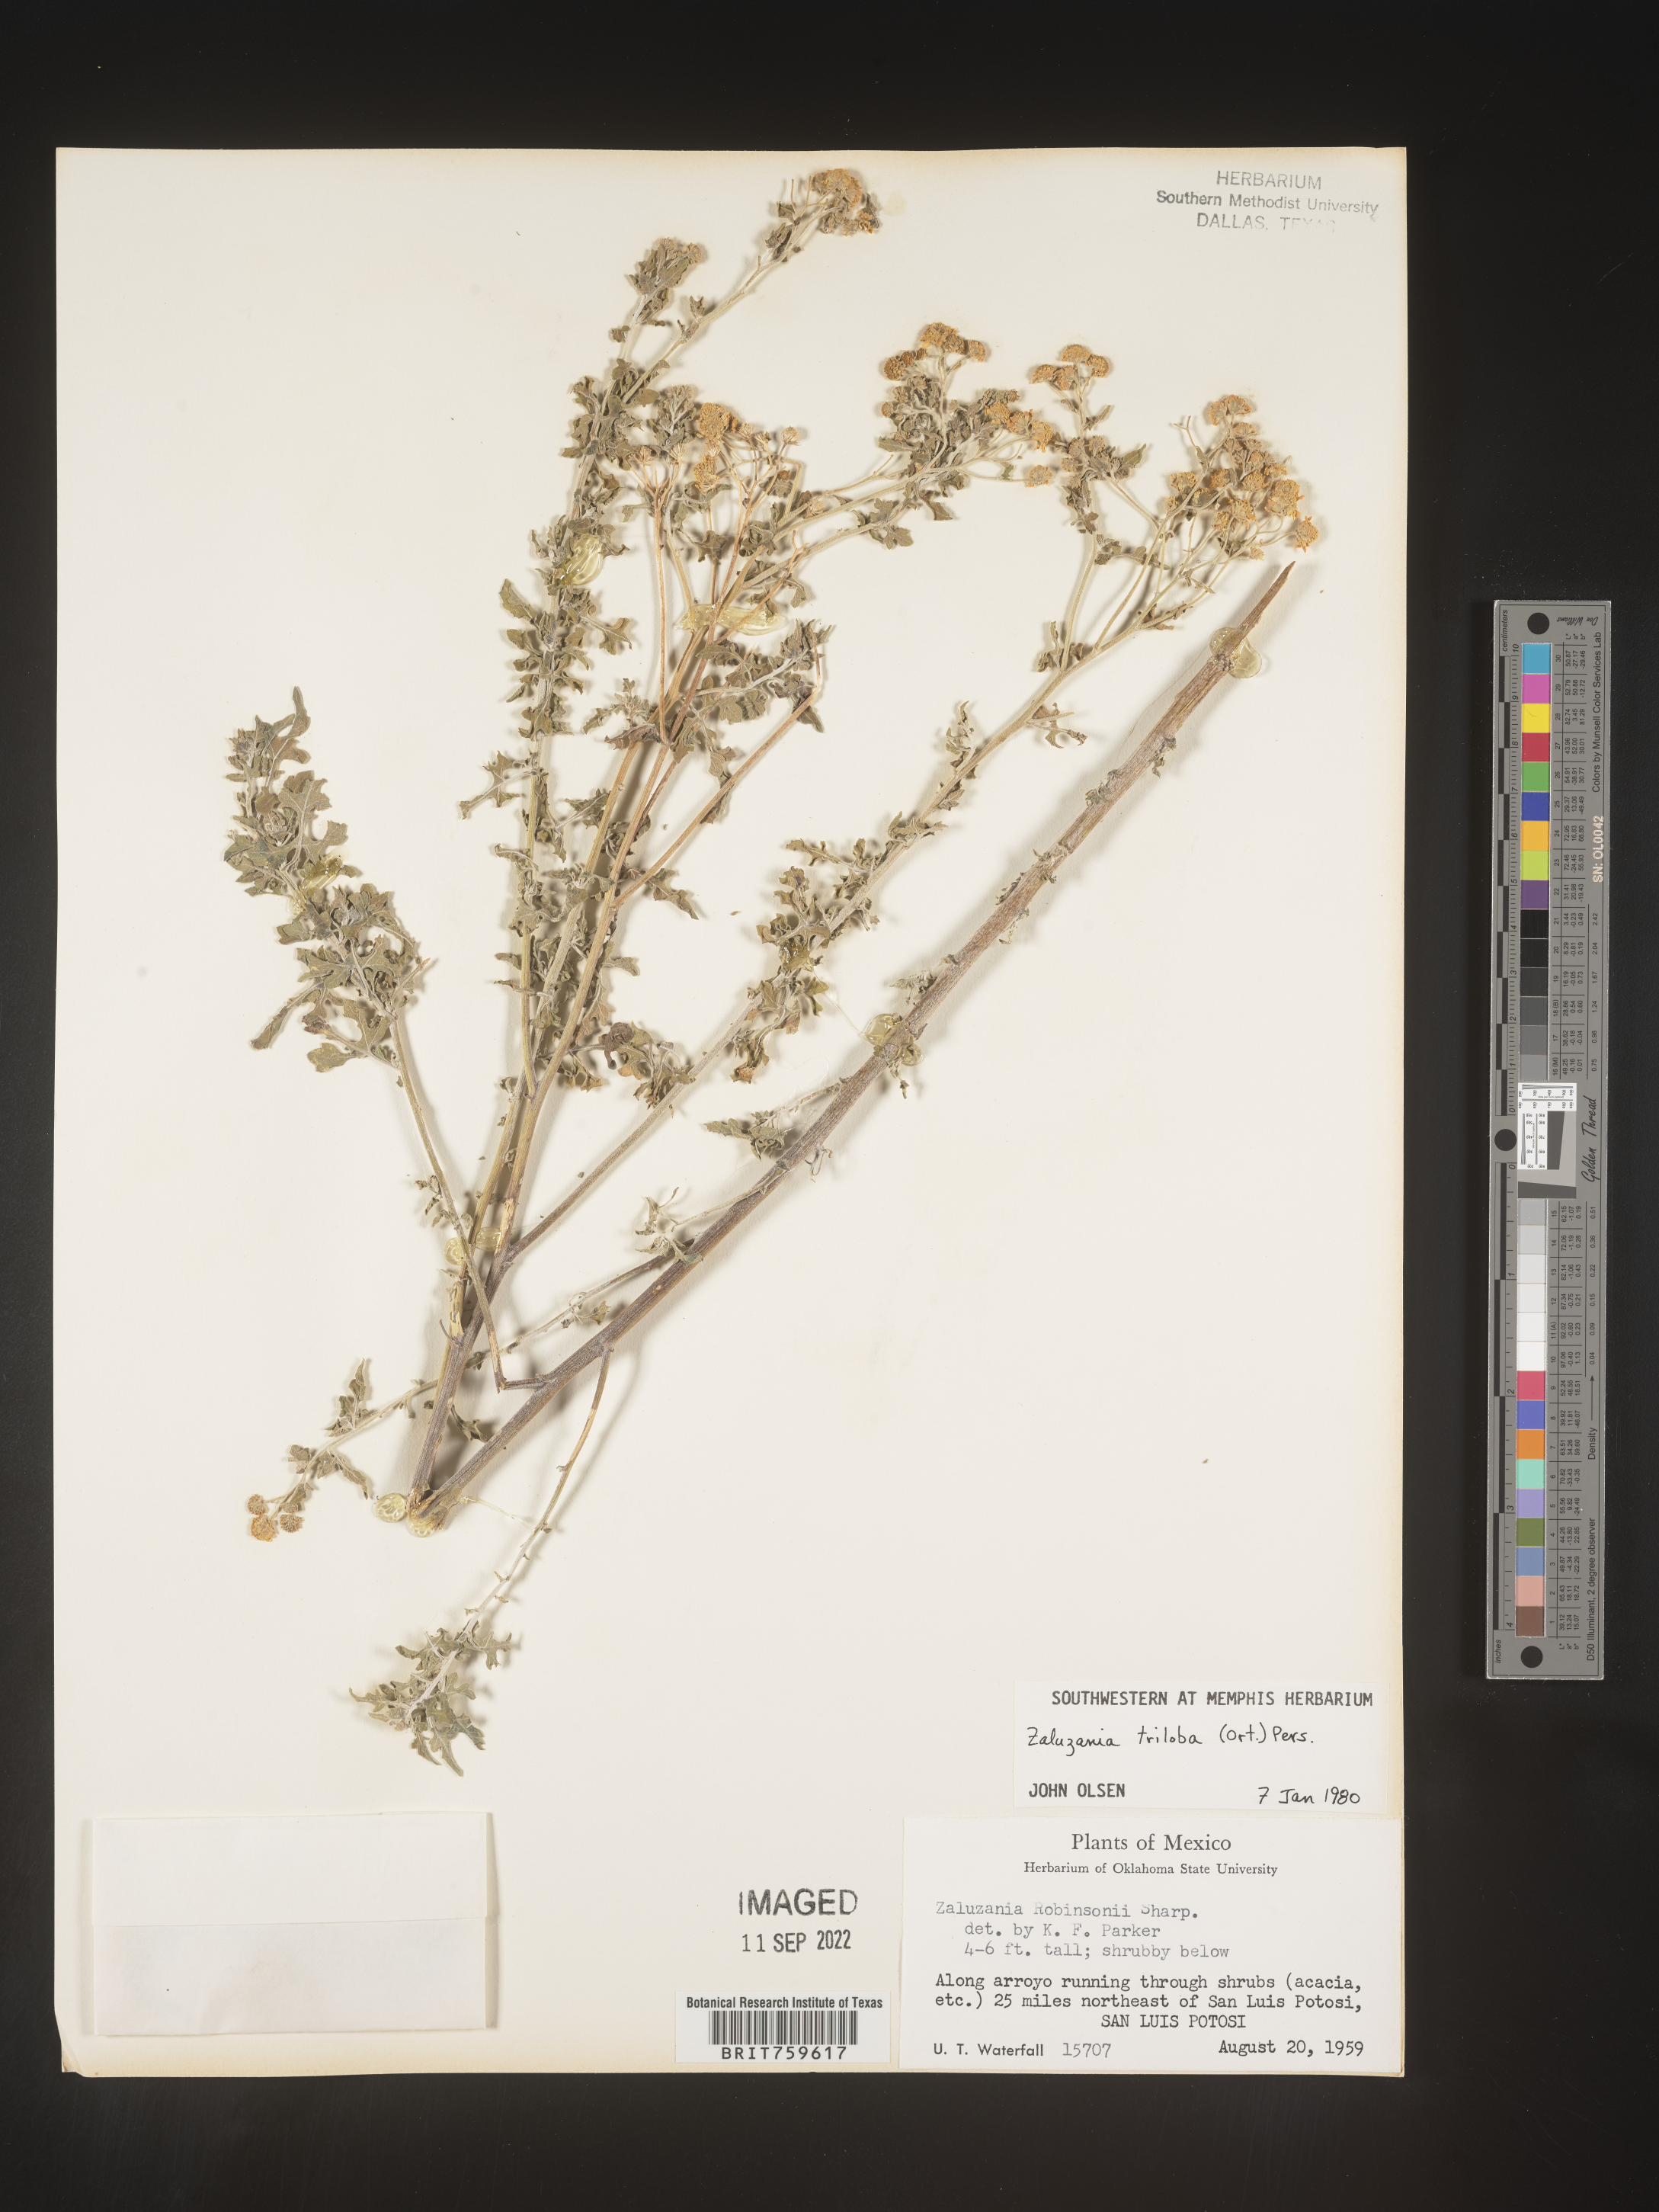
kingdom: Plantae
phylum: Tracheophyta
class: Magnoliopsida
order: Asterales
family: Asteraceae
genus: Zaluzania
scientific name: Zaluzania
